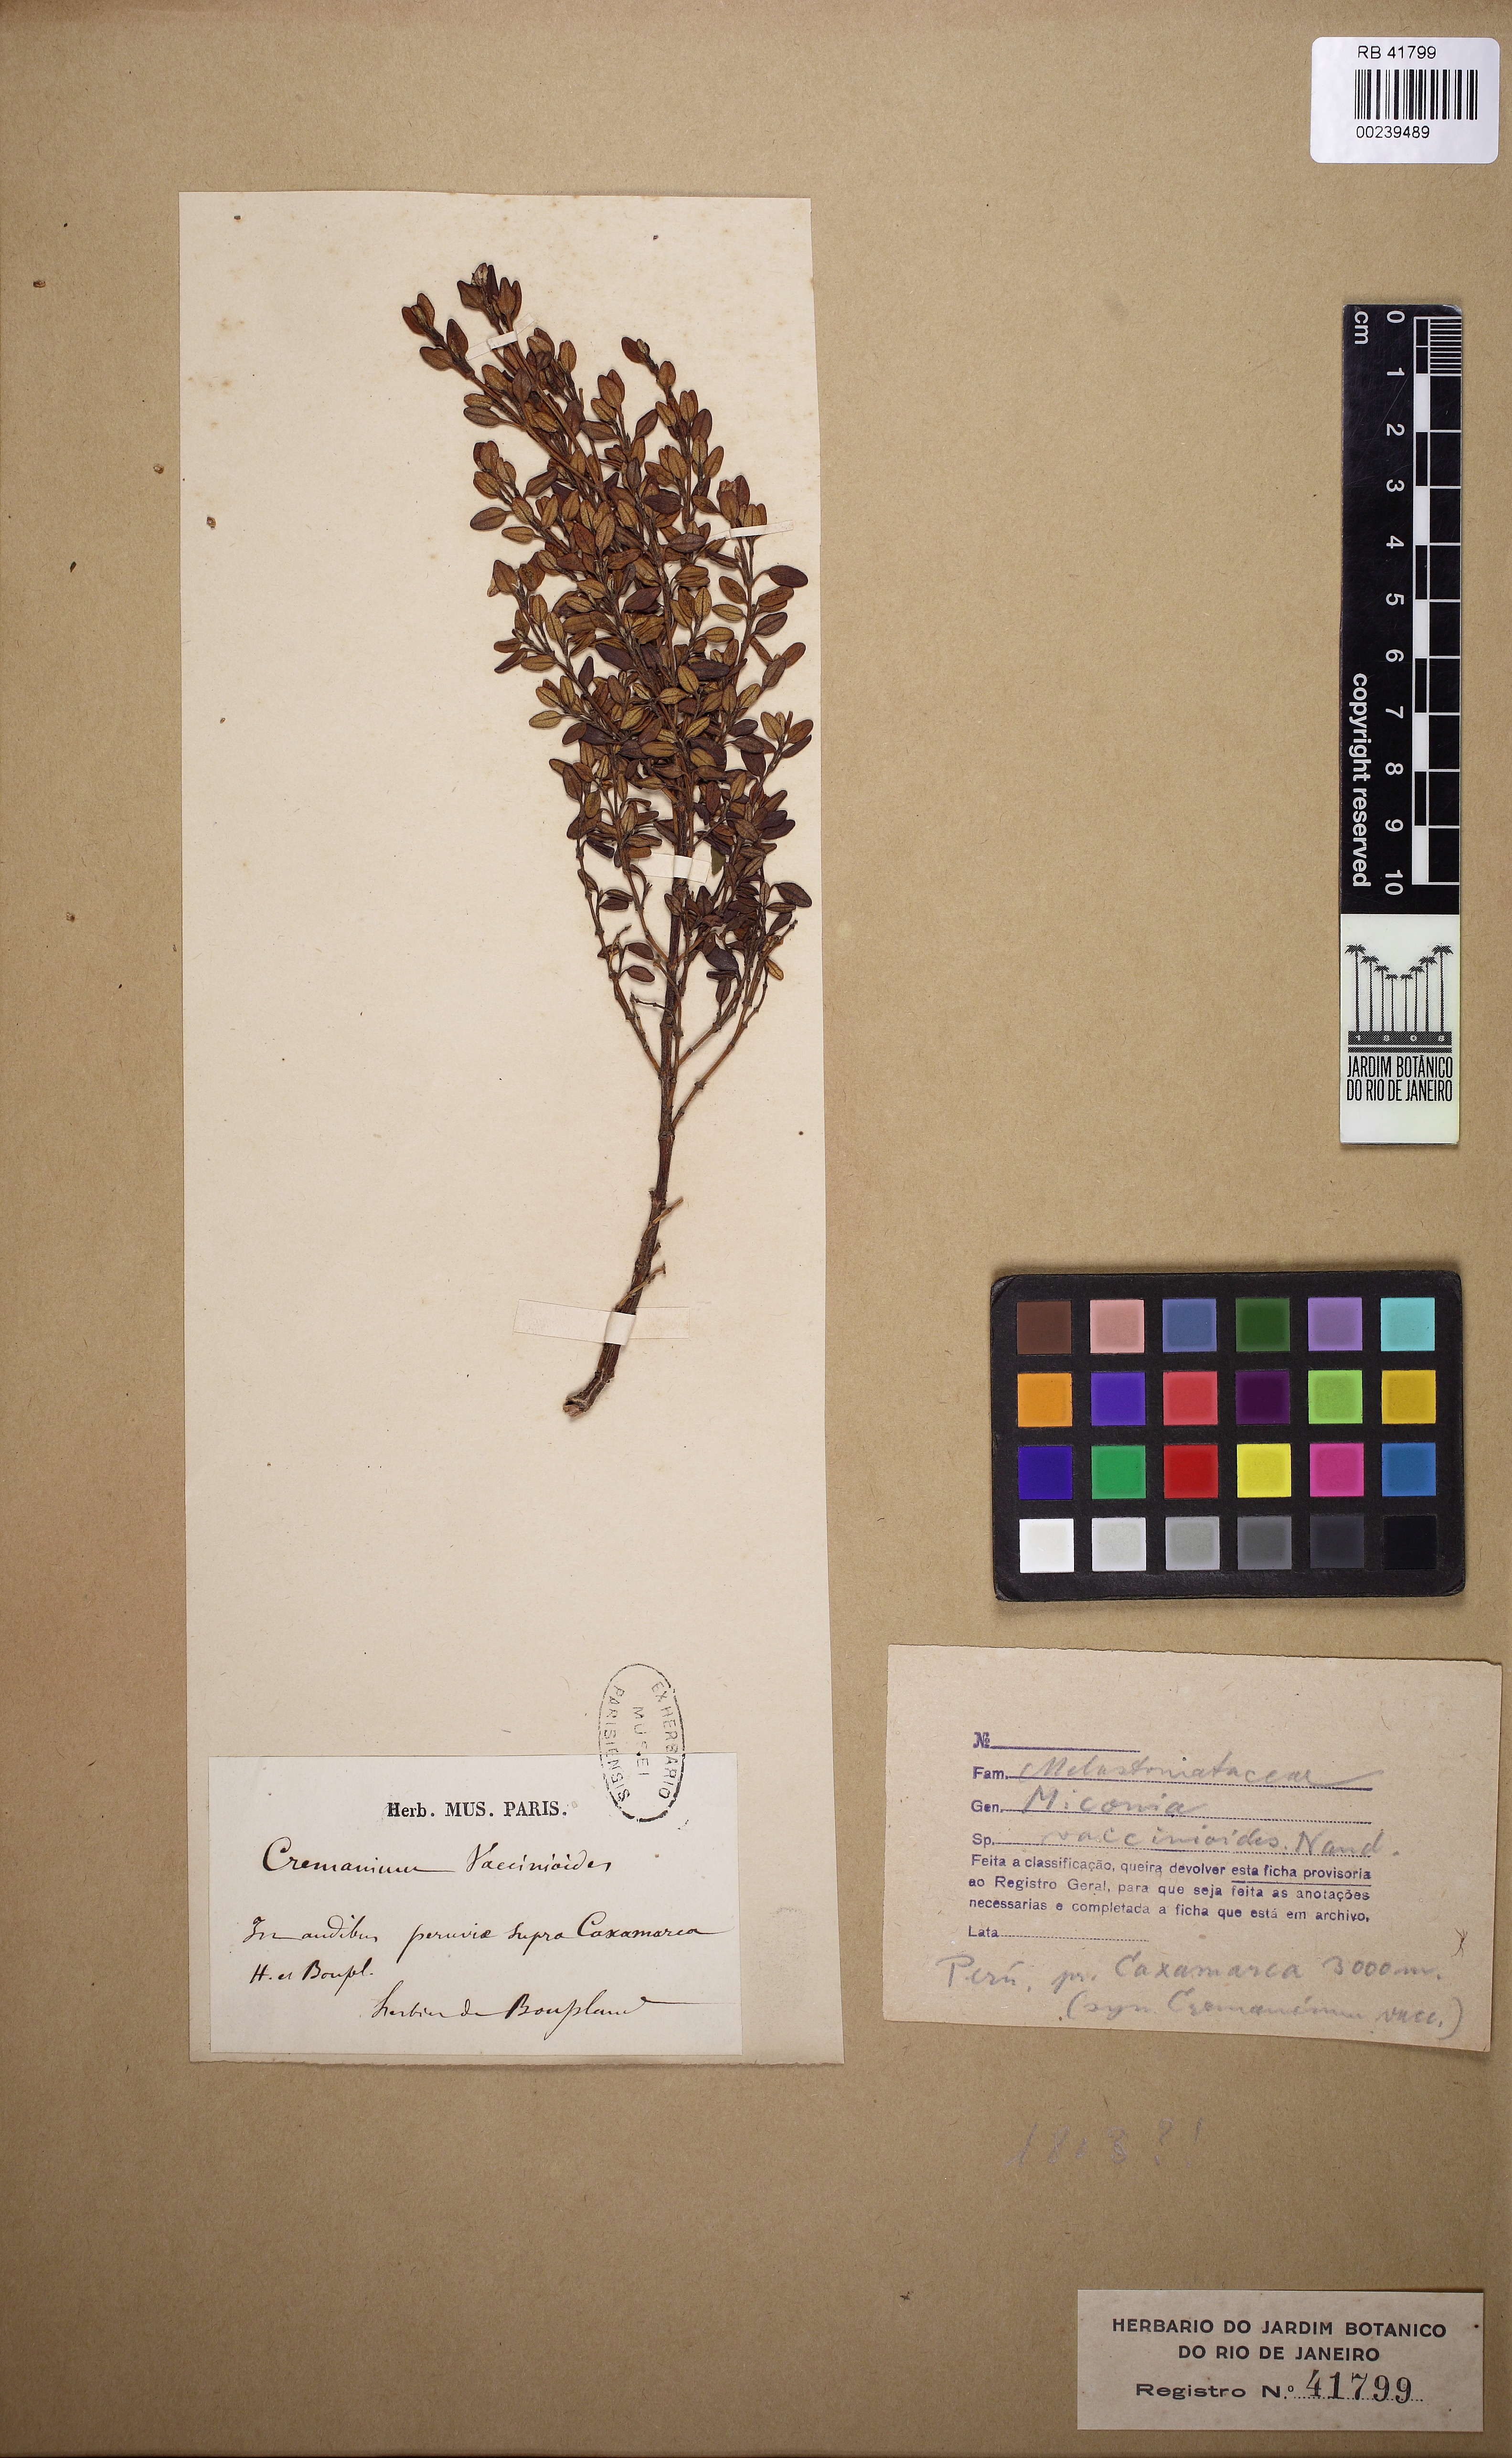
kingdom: Plantae
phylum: Tracheophyta
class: Magnoliopsida
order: Myrtales
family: Melastomataceae
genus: Miconia
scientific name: Miconia vaccinioides
